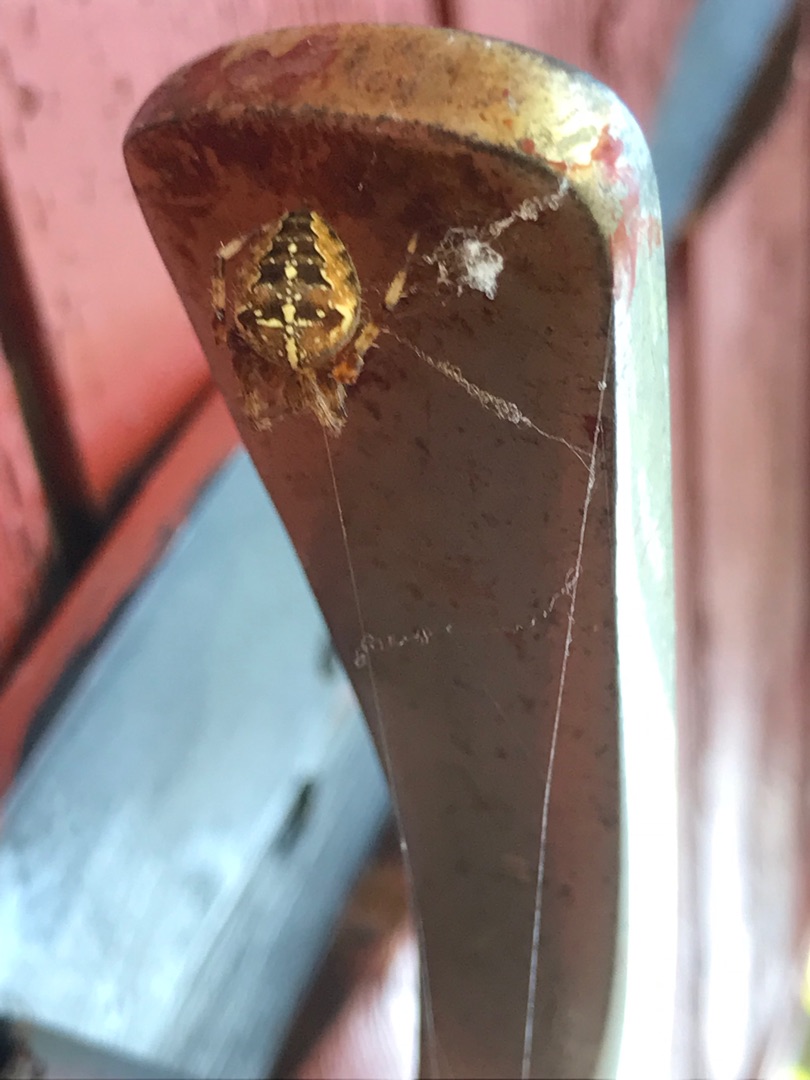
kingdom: Animalia
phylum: Arthropoda
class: Arachnida
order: Araneae
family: Araneidae
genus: Araneus
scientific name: Araneus diadematus
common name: Korsedderkop
